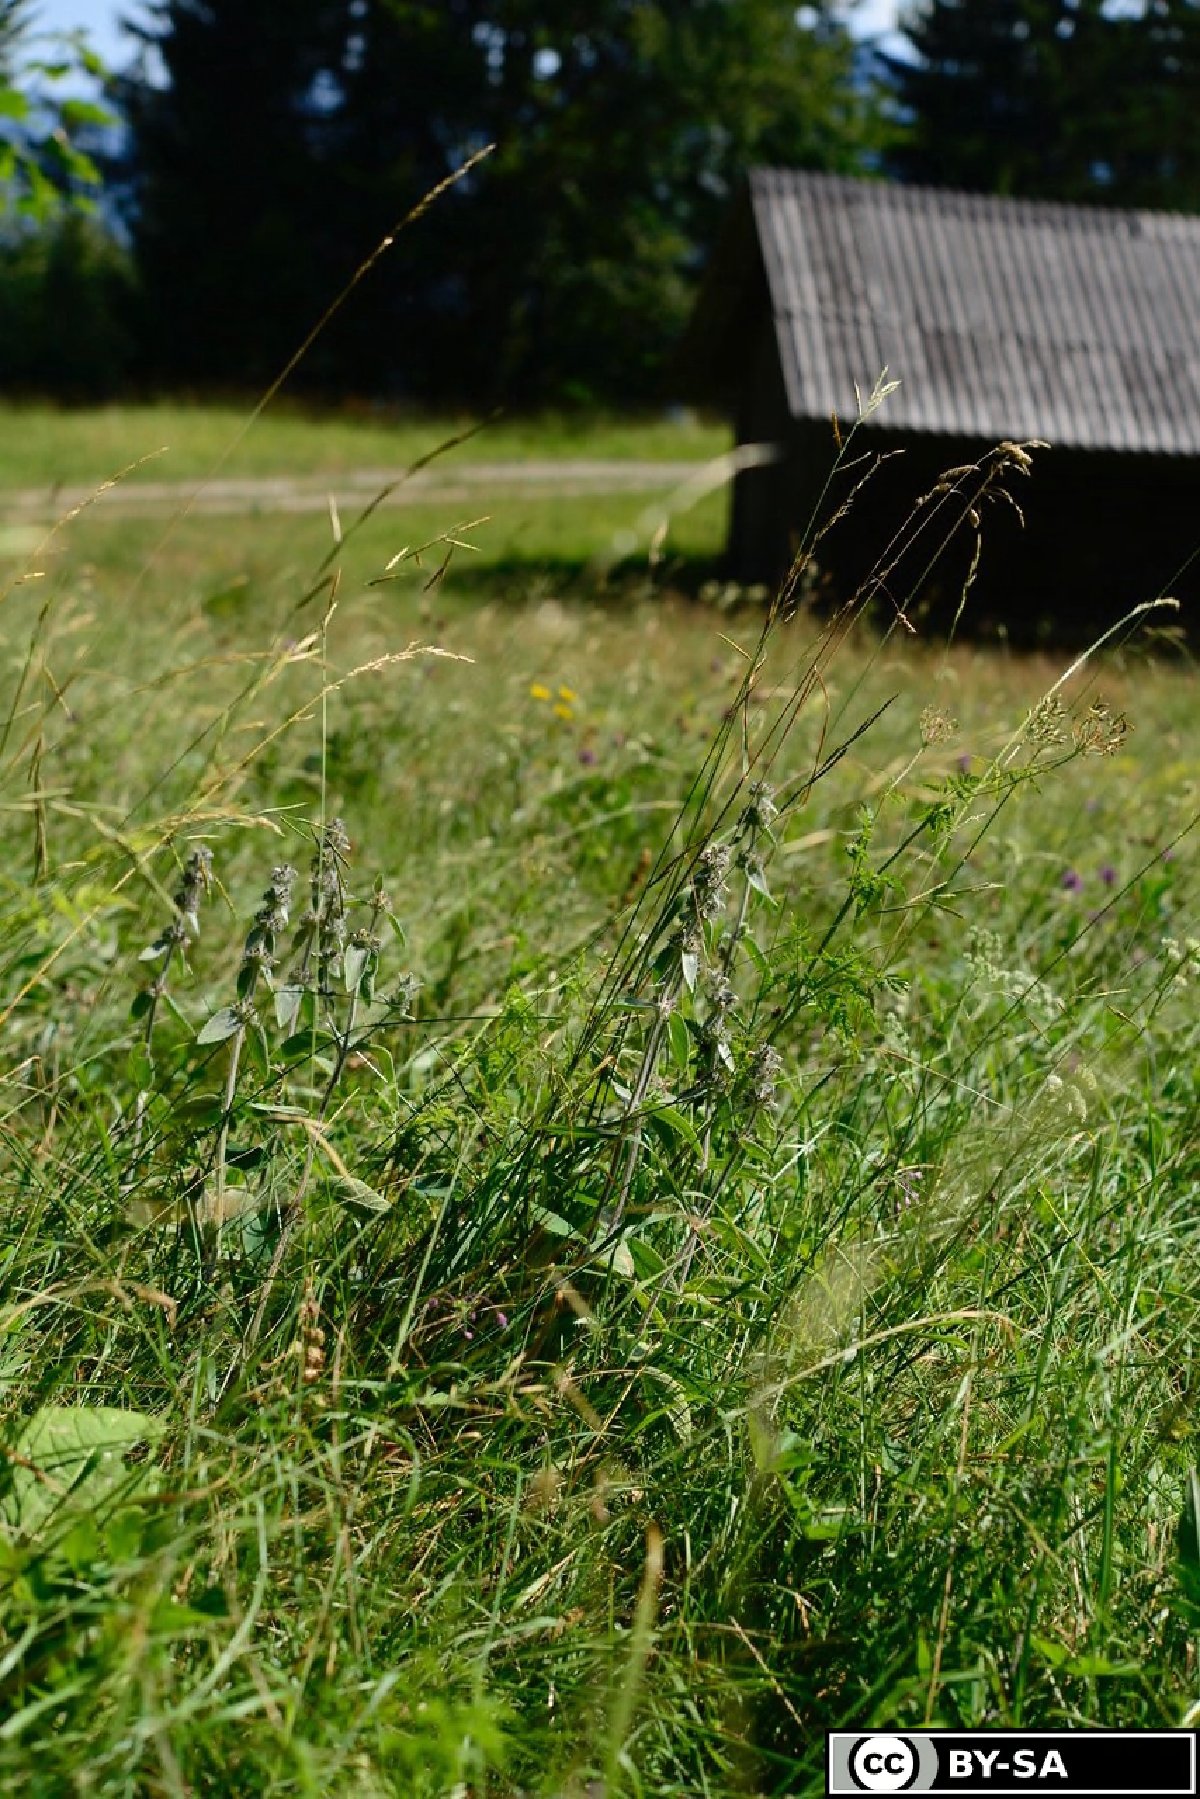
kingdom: Plantae
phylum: Tracheophyta
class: Magnoliopsida
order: Lamiales
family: Lamiaceae
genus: Stachys
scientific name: Stachys germanica
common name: Downy woundwort
